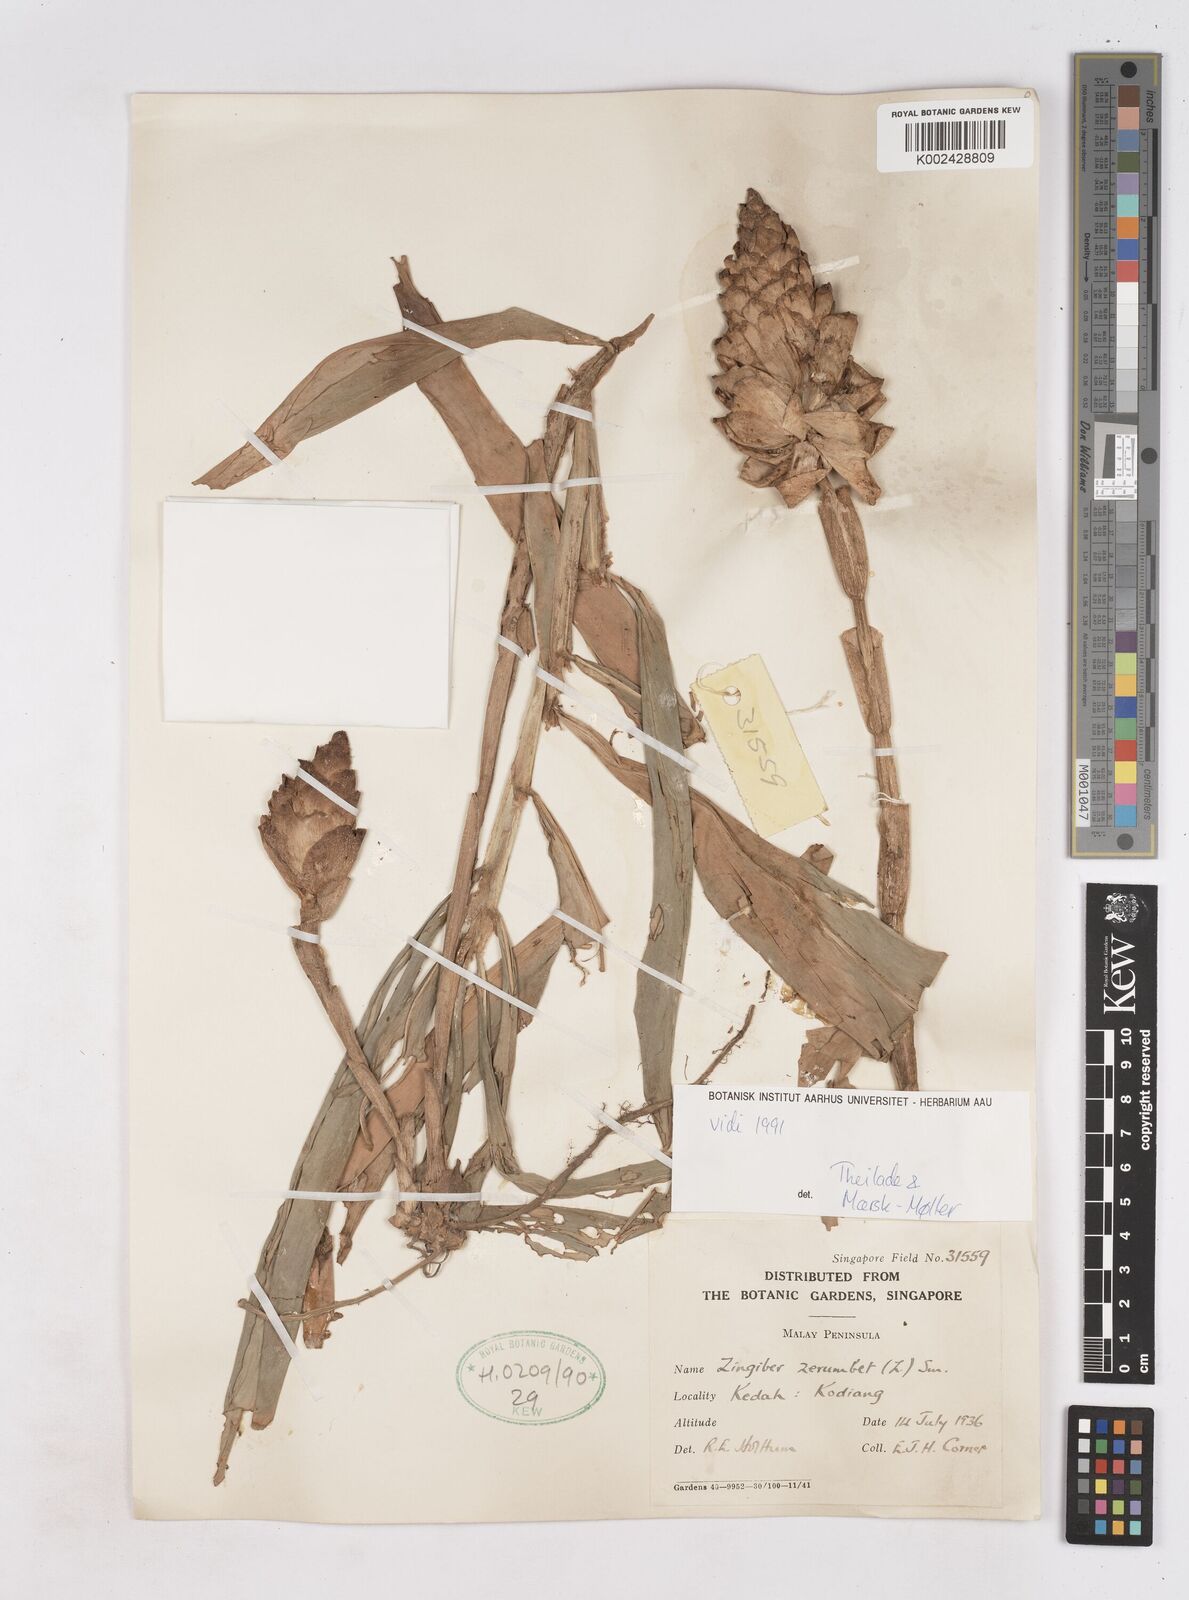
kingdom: Plantae
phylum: Tracheophyta
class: Liliopsida
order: Zingiberales
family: Zingiberaceae
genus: Zingiber
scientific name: Zingiber zerumbet
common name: Bitter ginger
